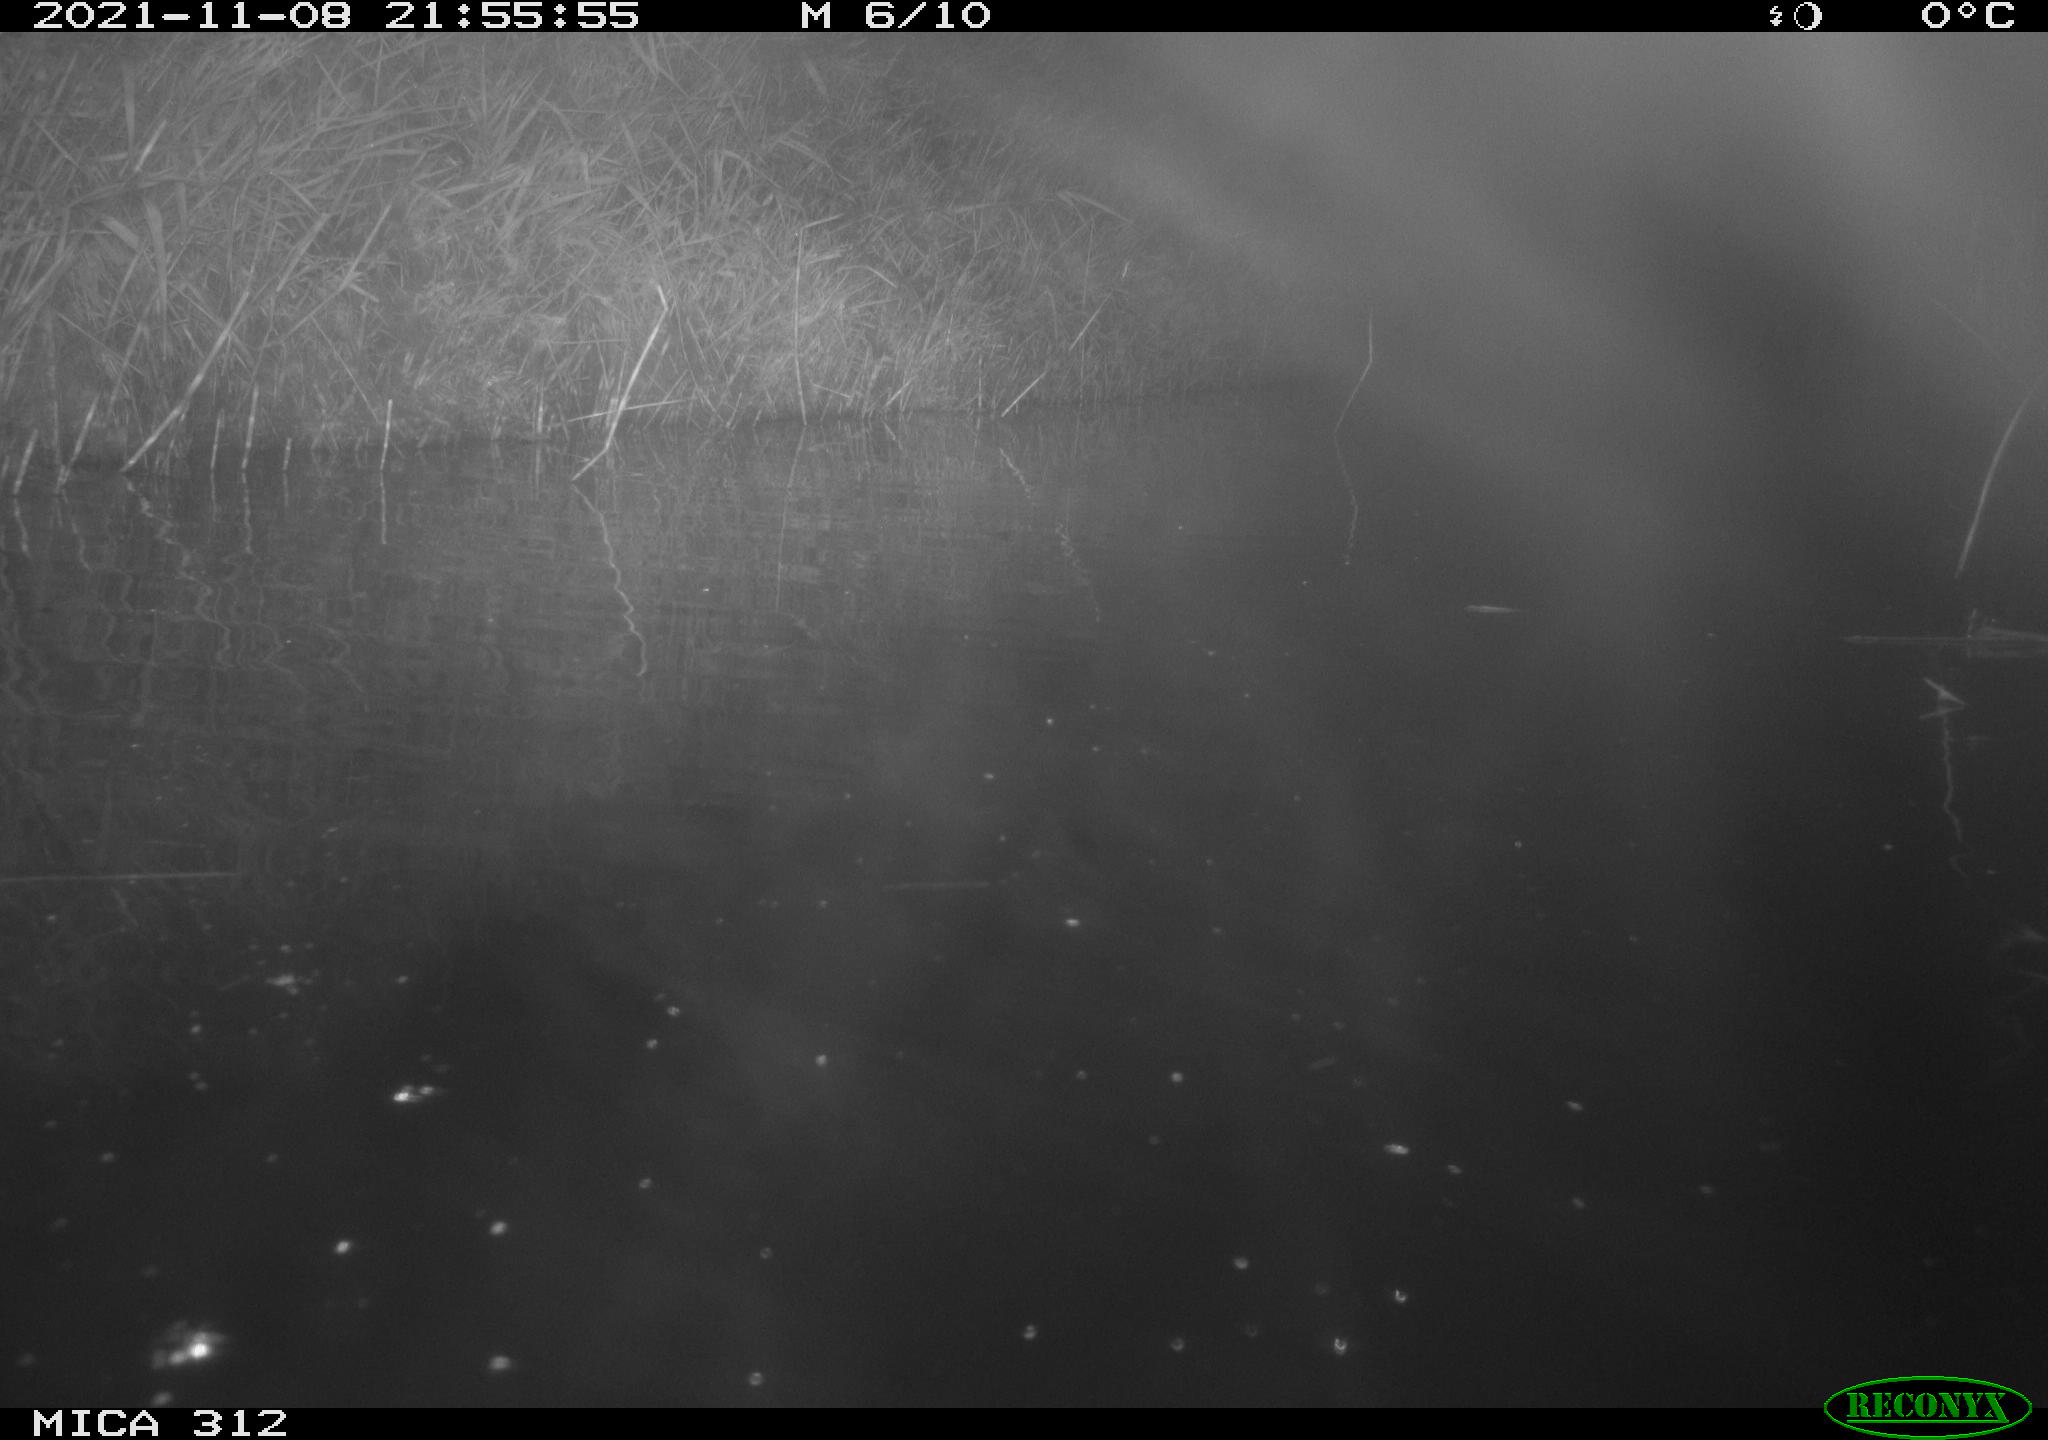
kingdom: Animalia
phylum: Chordata
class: Mammalia
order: Rodentia
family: Muridae
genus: Rattus
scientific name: Rattus norvegicus
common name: Brown rat
